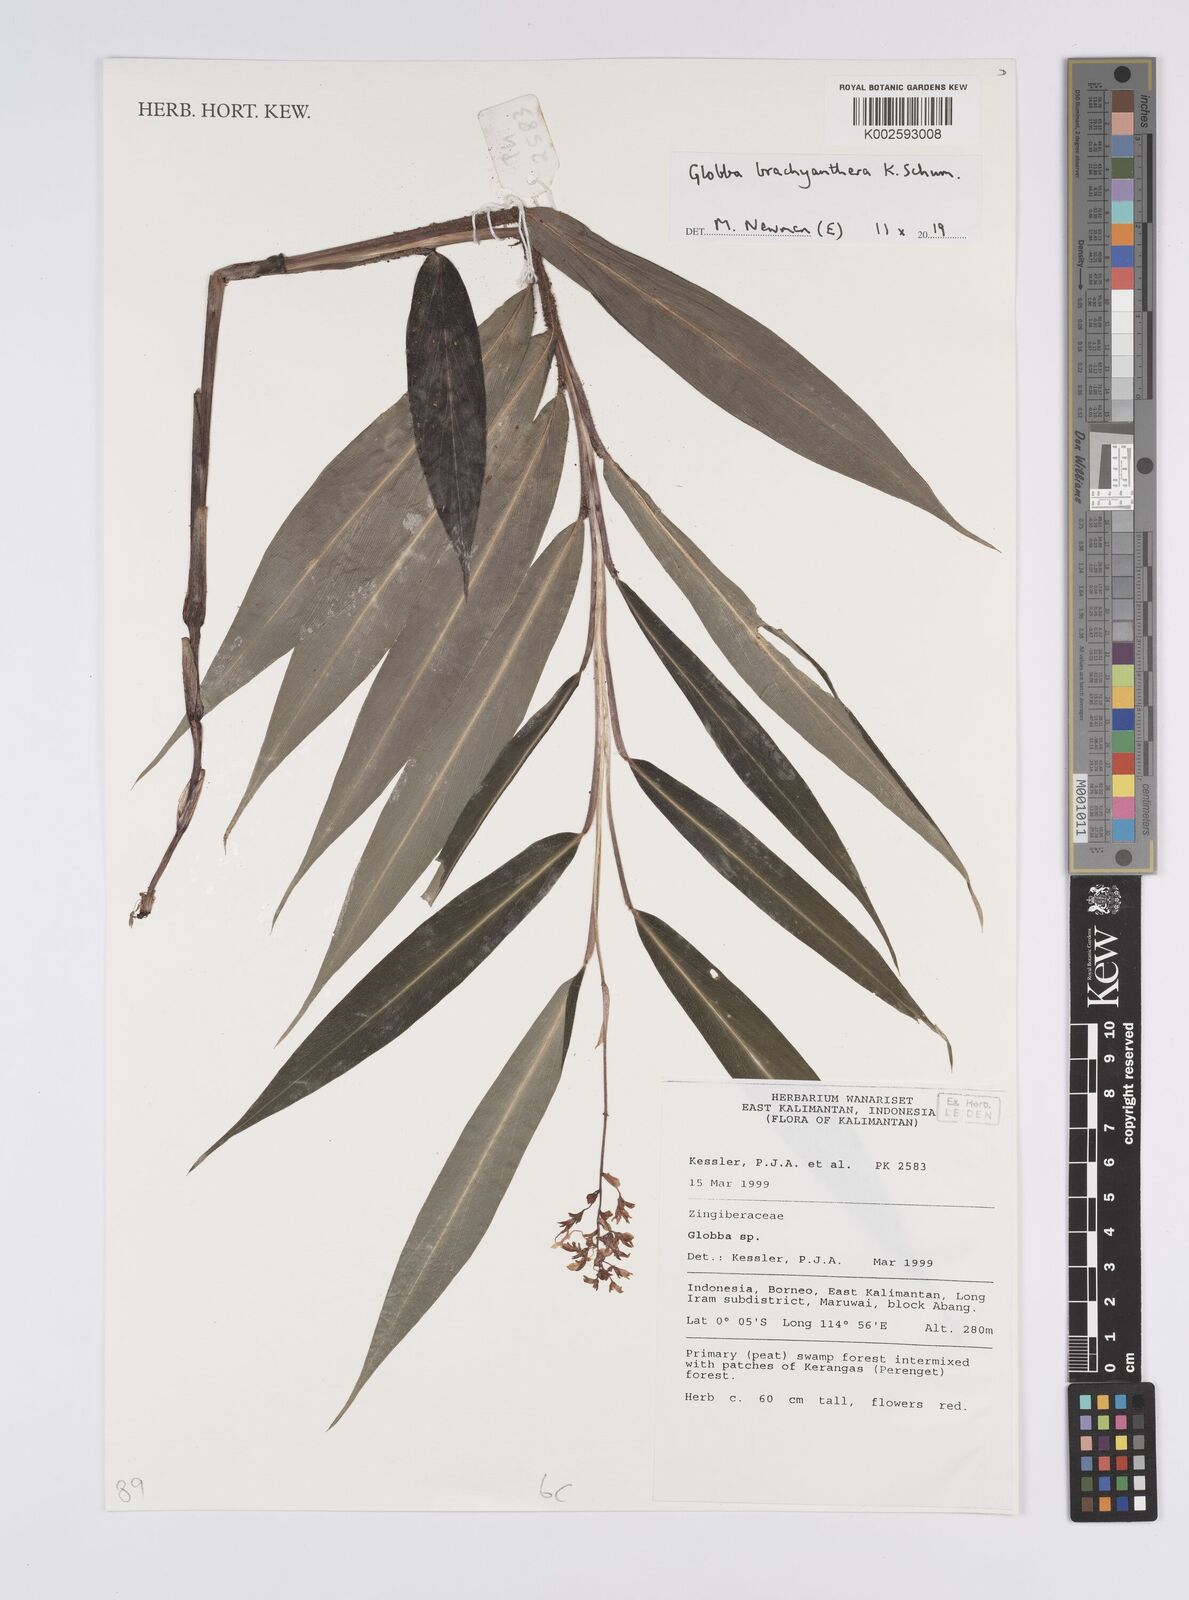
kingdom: Plantae
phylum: Tracheophyta
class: Liliopsida
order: Zingiberales
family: Zingiberaceae
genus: Globba
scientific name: Globba brachyanthera
